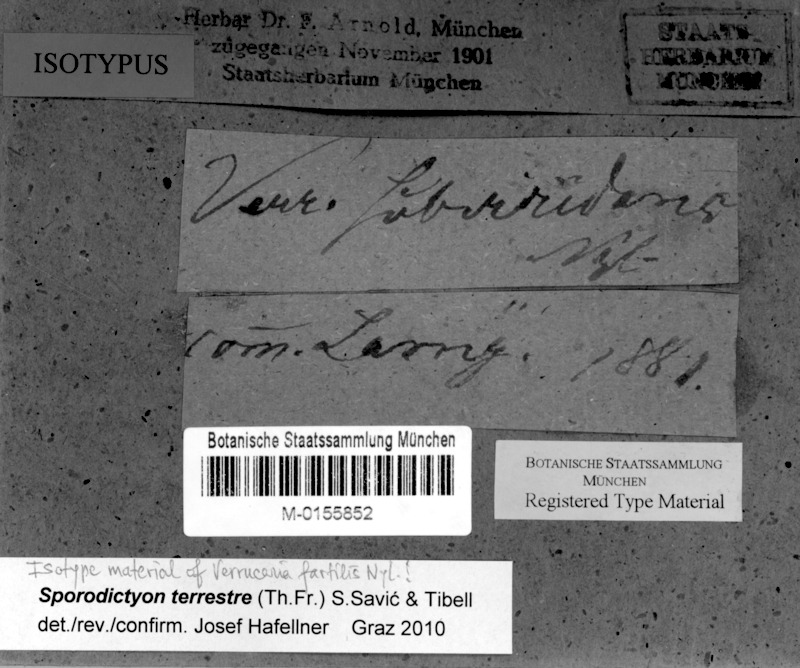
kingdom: Fungi
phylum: Ascomycota
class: Eurotiomycetes
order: Verrucariales
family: Verrucariaceae
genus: Sporodictyon
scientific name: Sporodictyon terrestre
